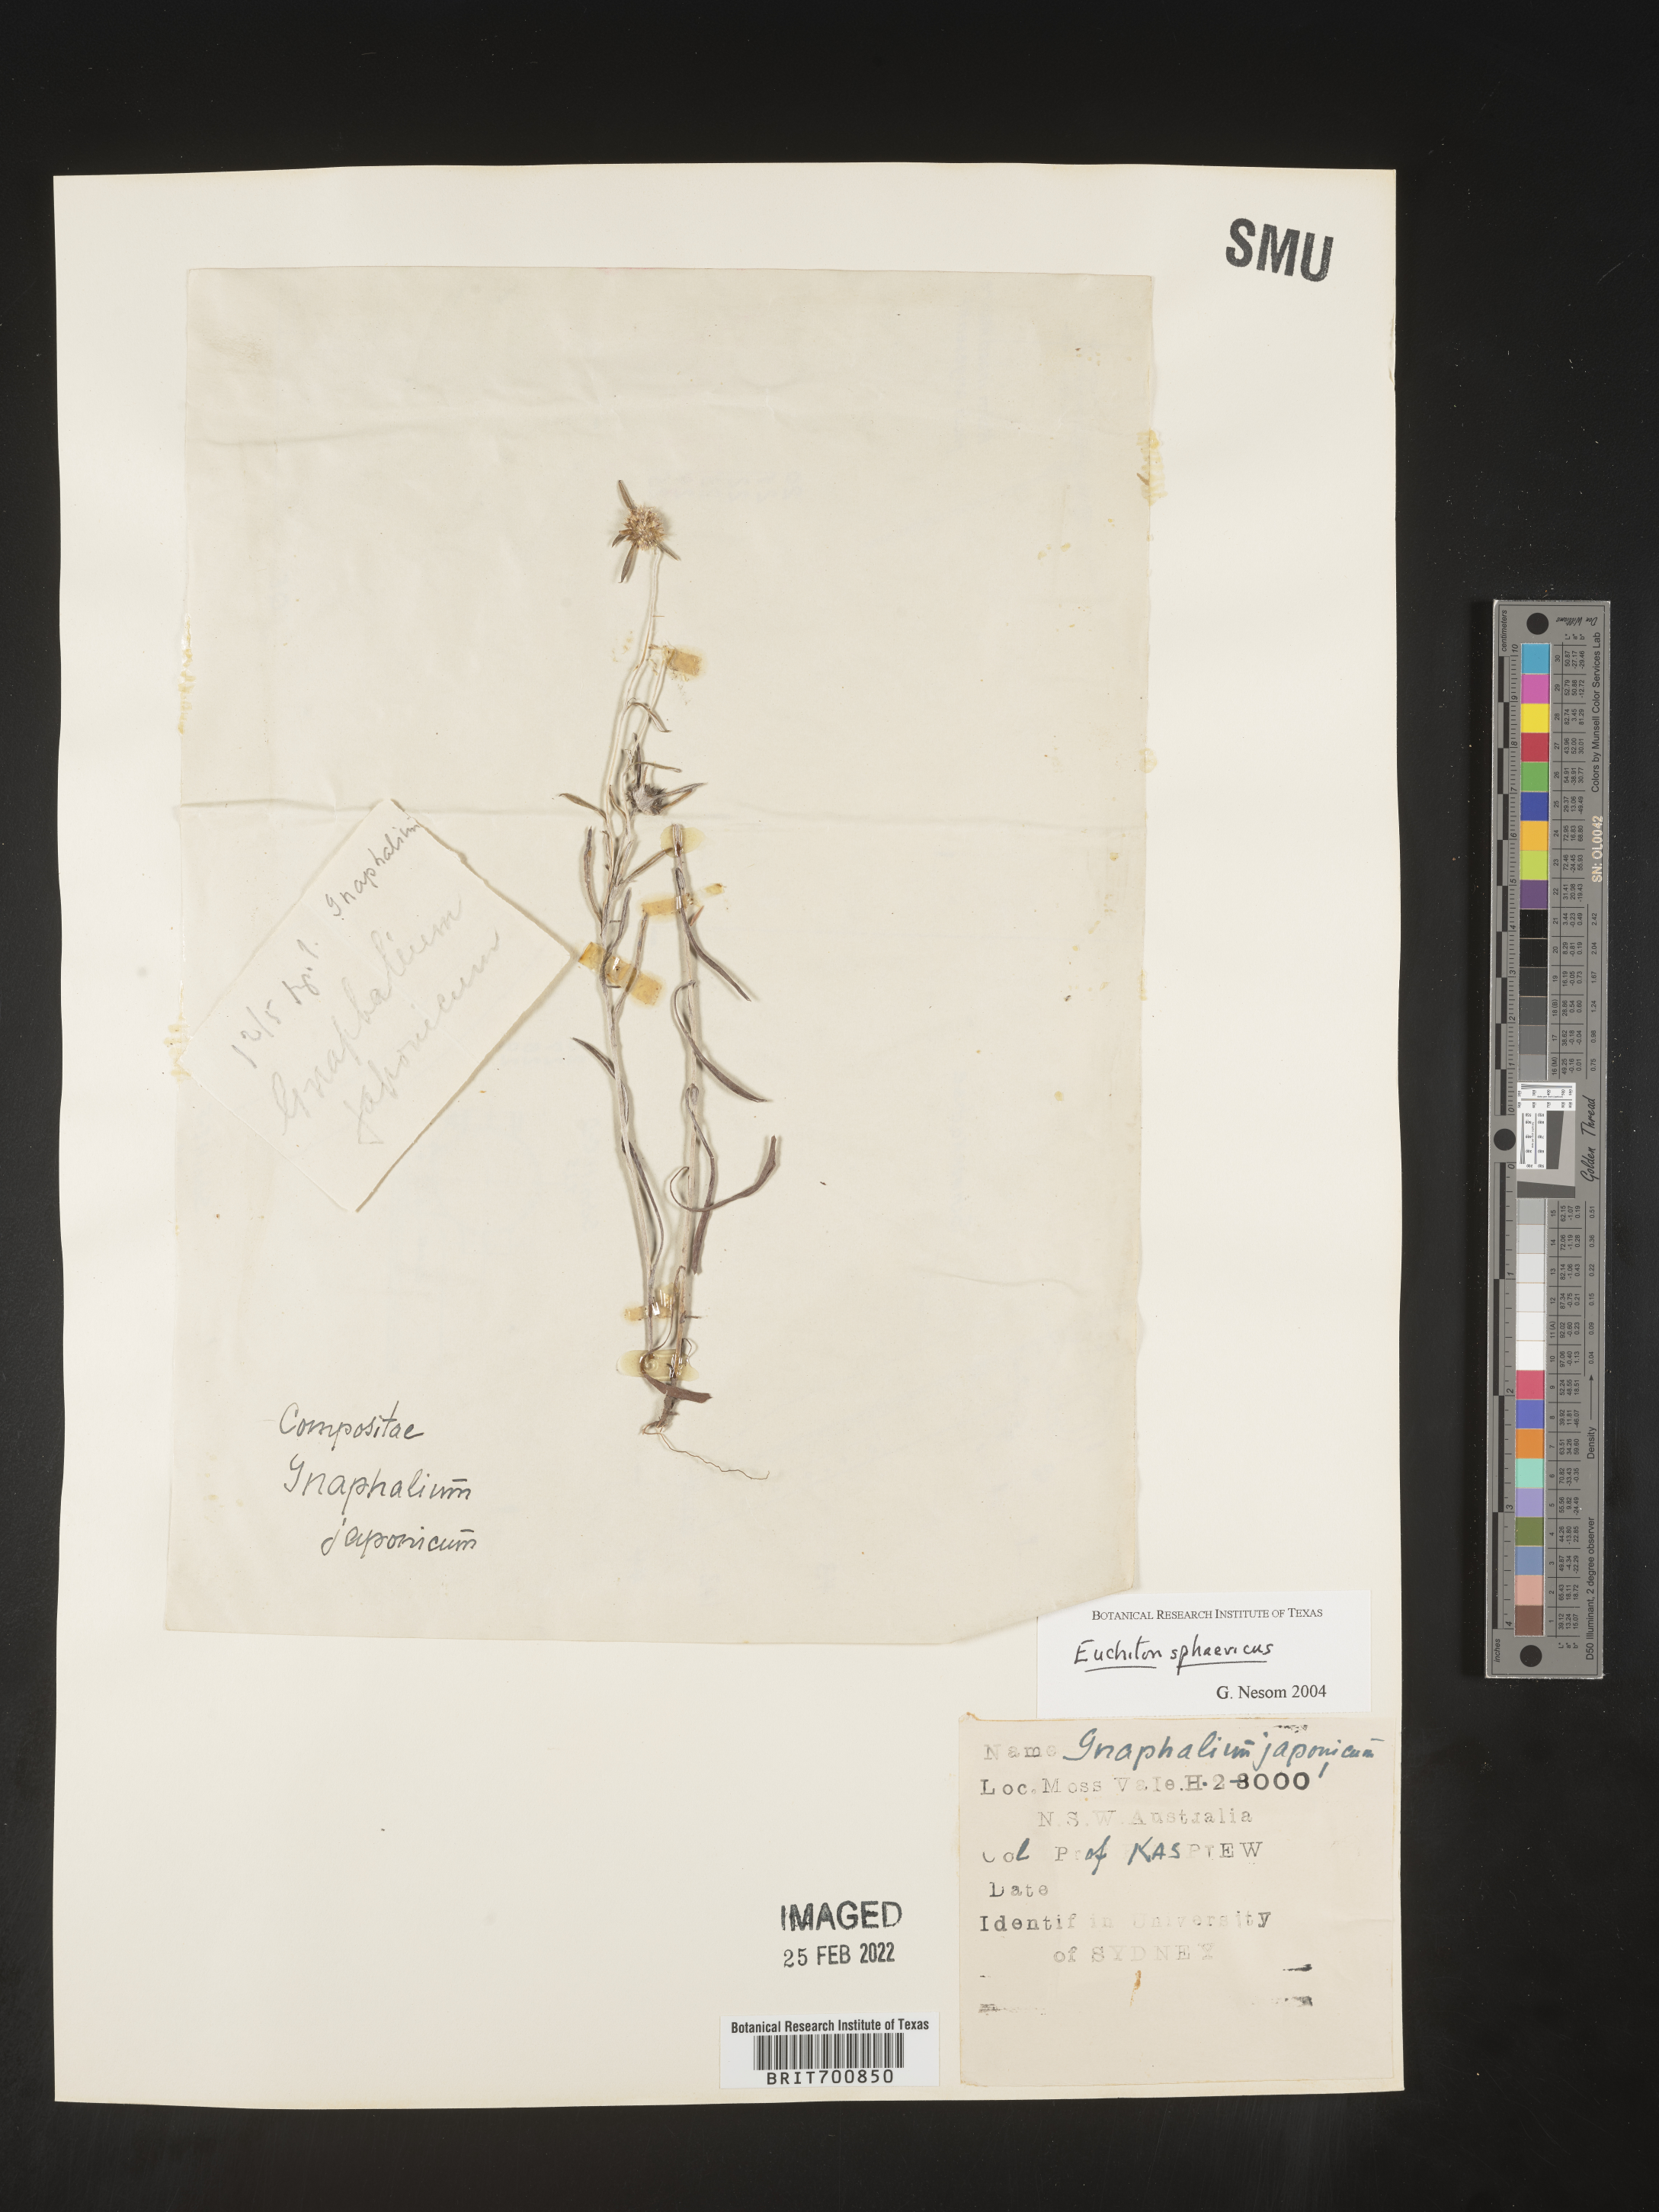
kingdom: Plantae
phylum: Tracheophyta
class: Magnoliopsida
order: Asterales
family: Asteraceae
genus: Euchiton
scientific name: Euchiton
